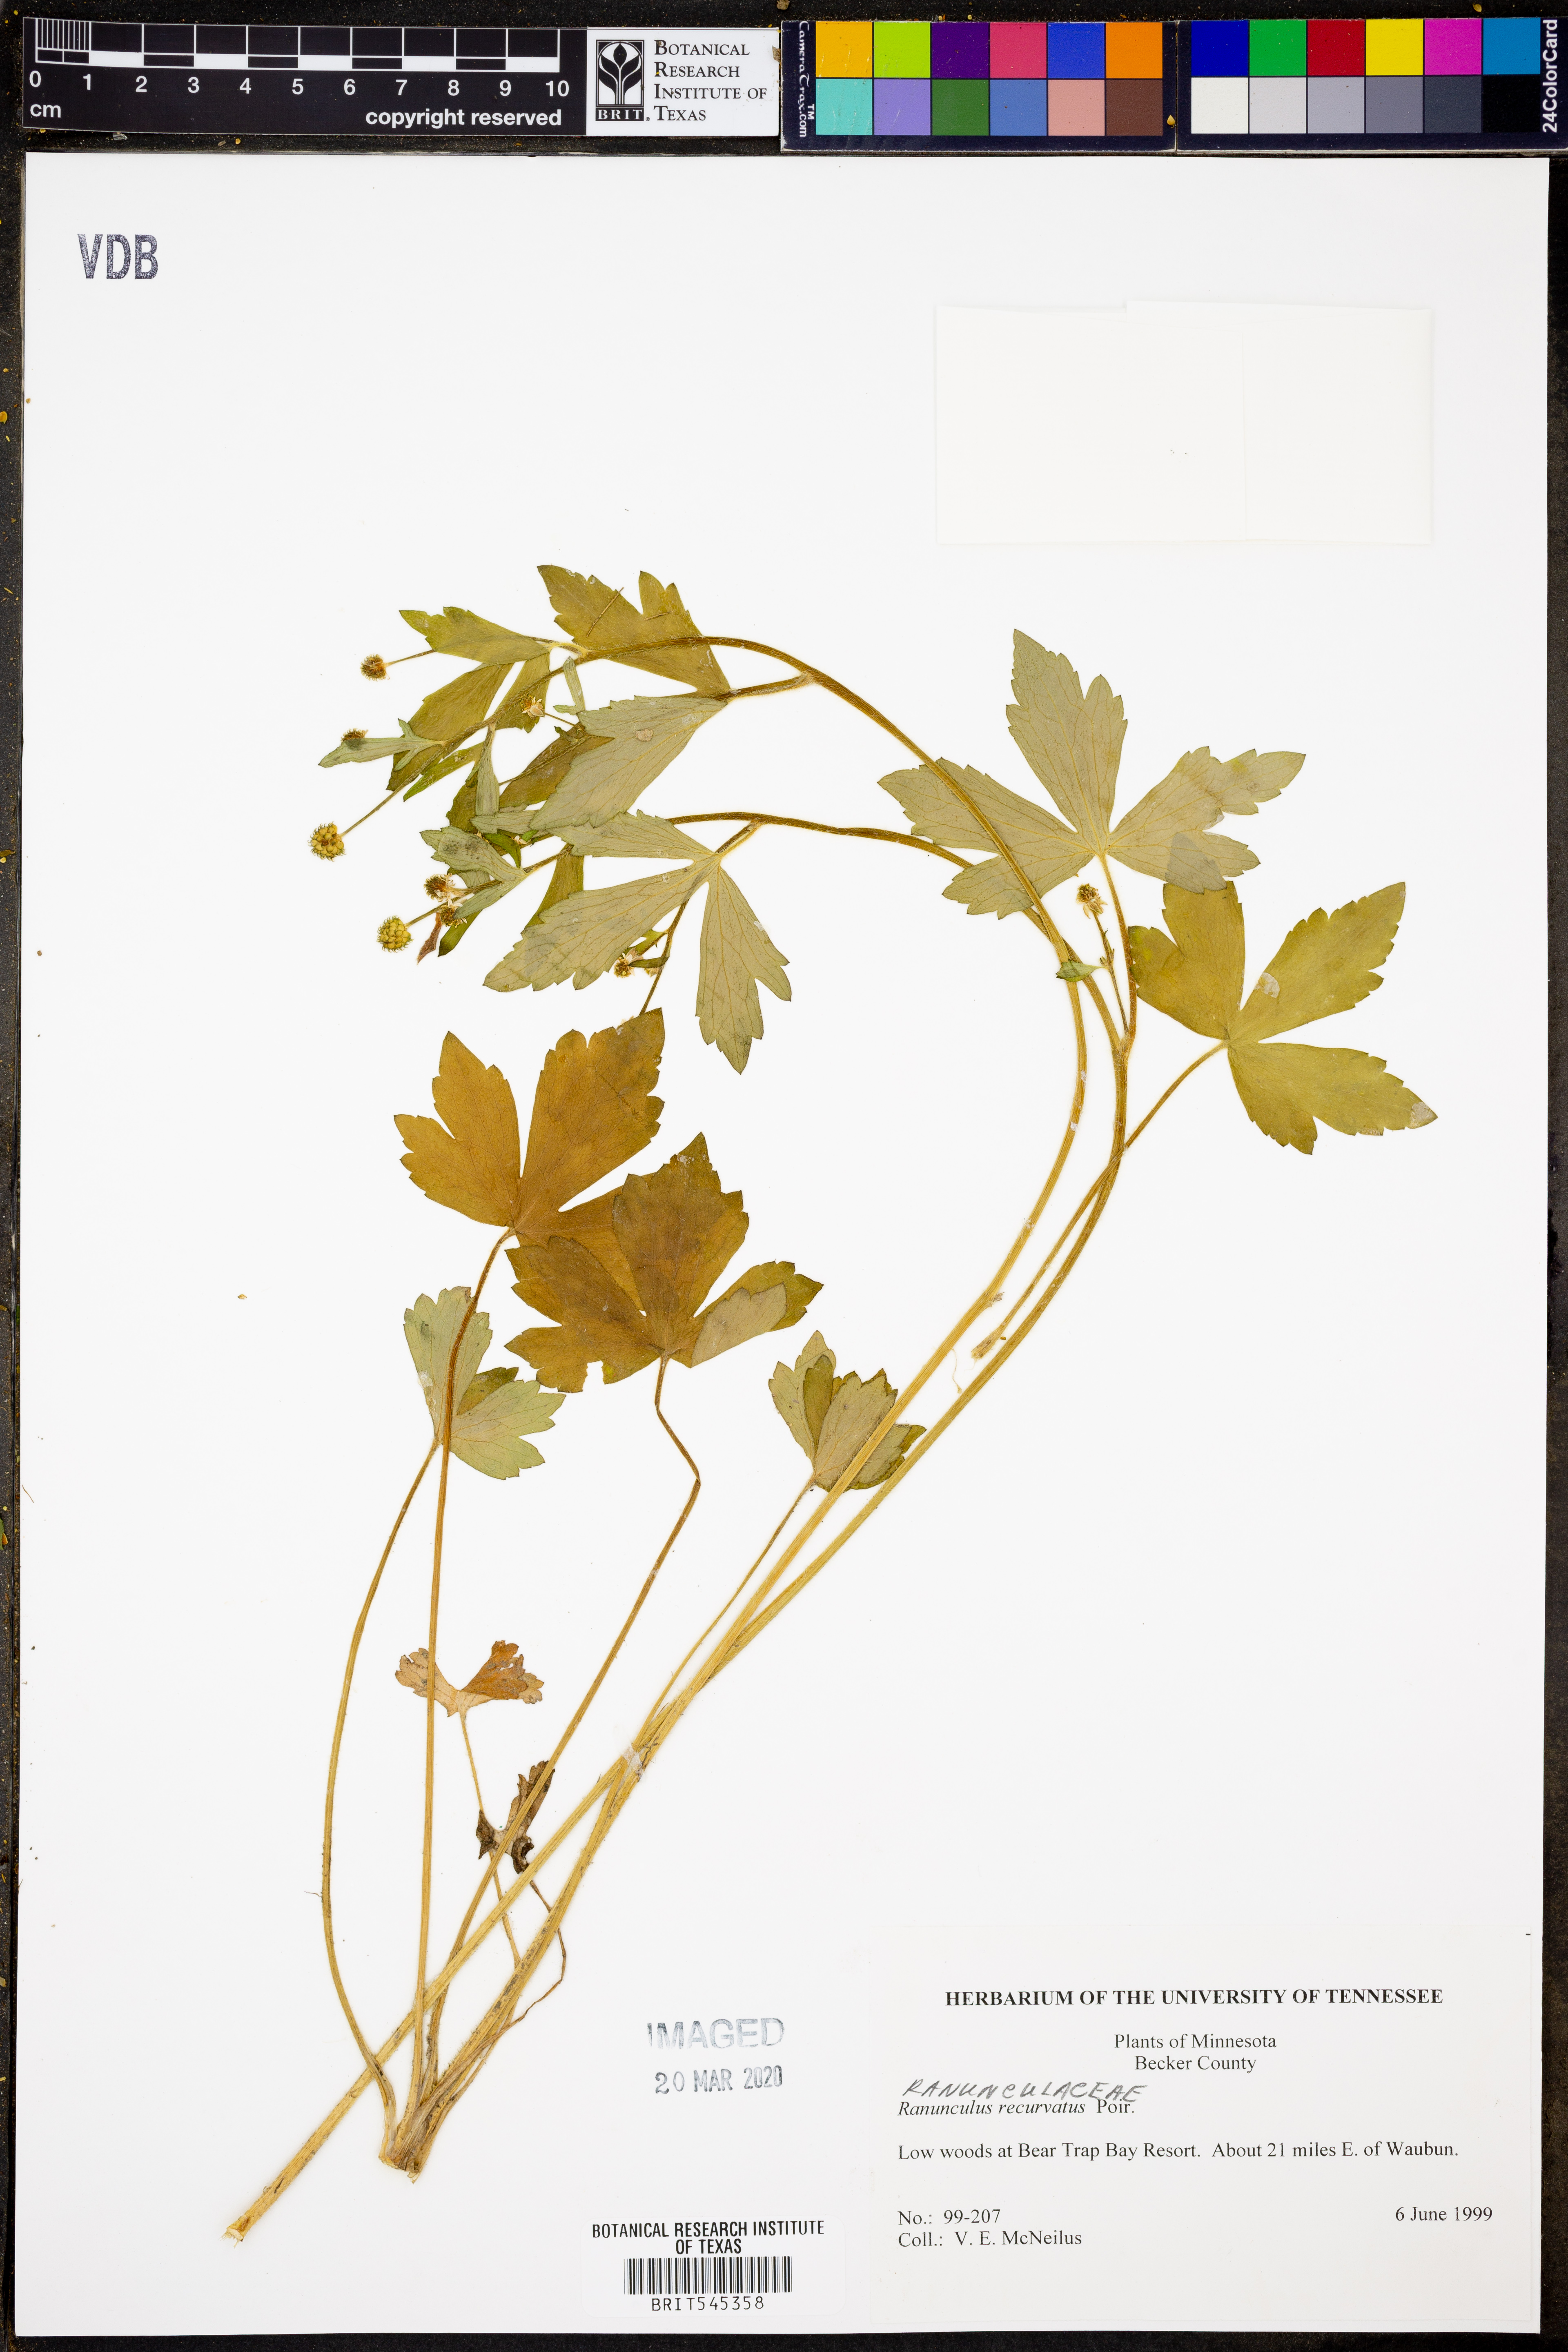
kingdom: Plantae
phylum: Tracheophyta
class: Magnoliopsida
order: Ranunculales
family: Ranunculaceae
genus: Ranunculus
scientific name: Ranunculus recurvatus
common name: Blisterwort
